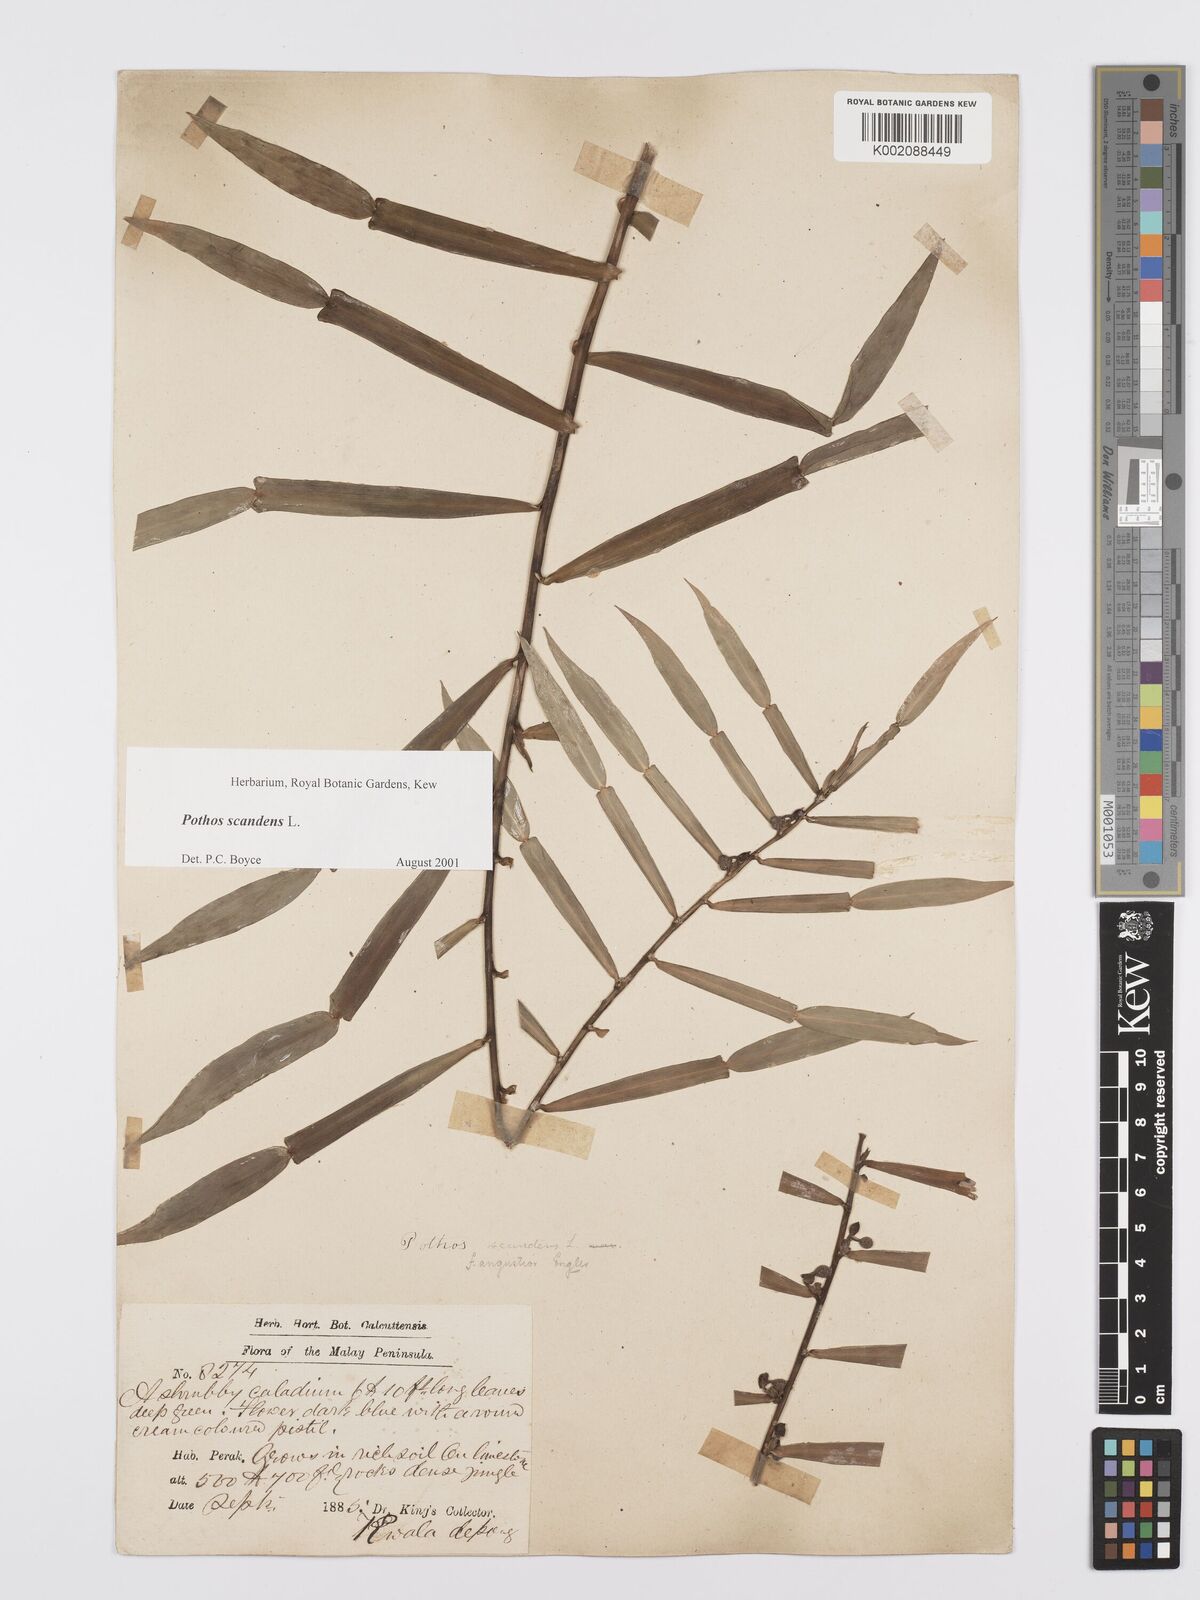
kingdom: Plantae
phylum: Tracheophyta
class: Liliopsida
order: Alismatales
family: Araceae
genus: Pothos
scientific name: Pothos scandens
